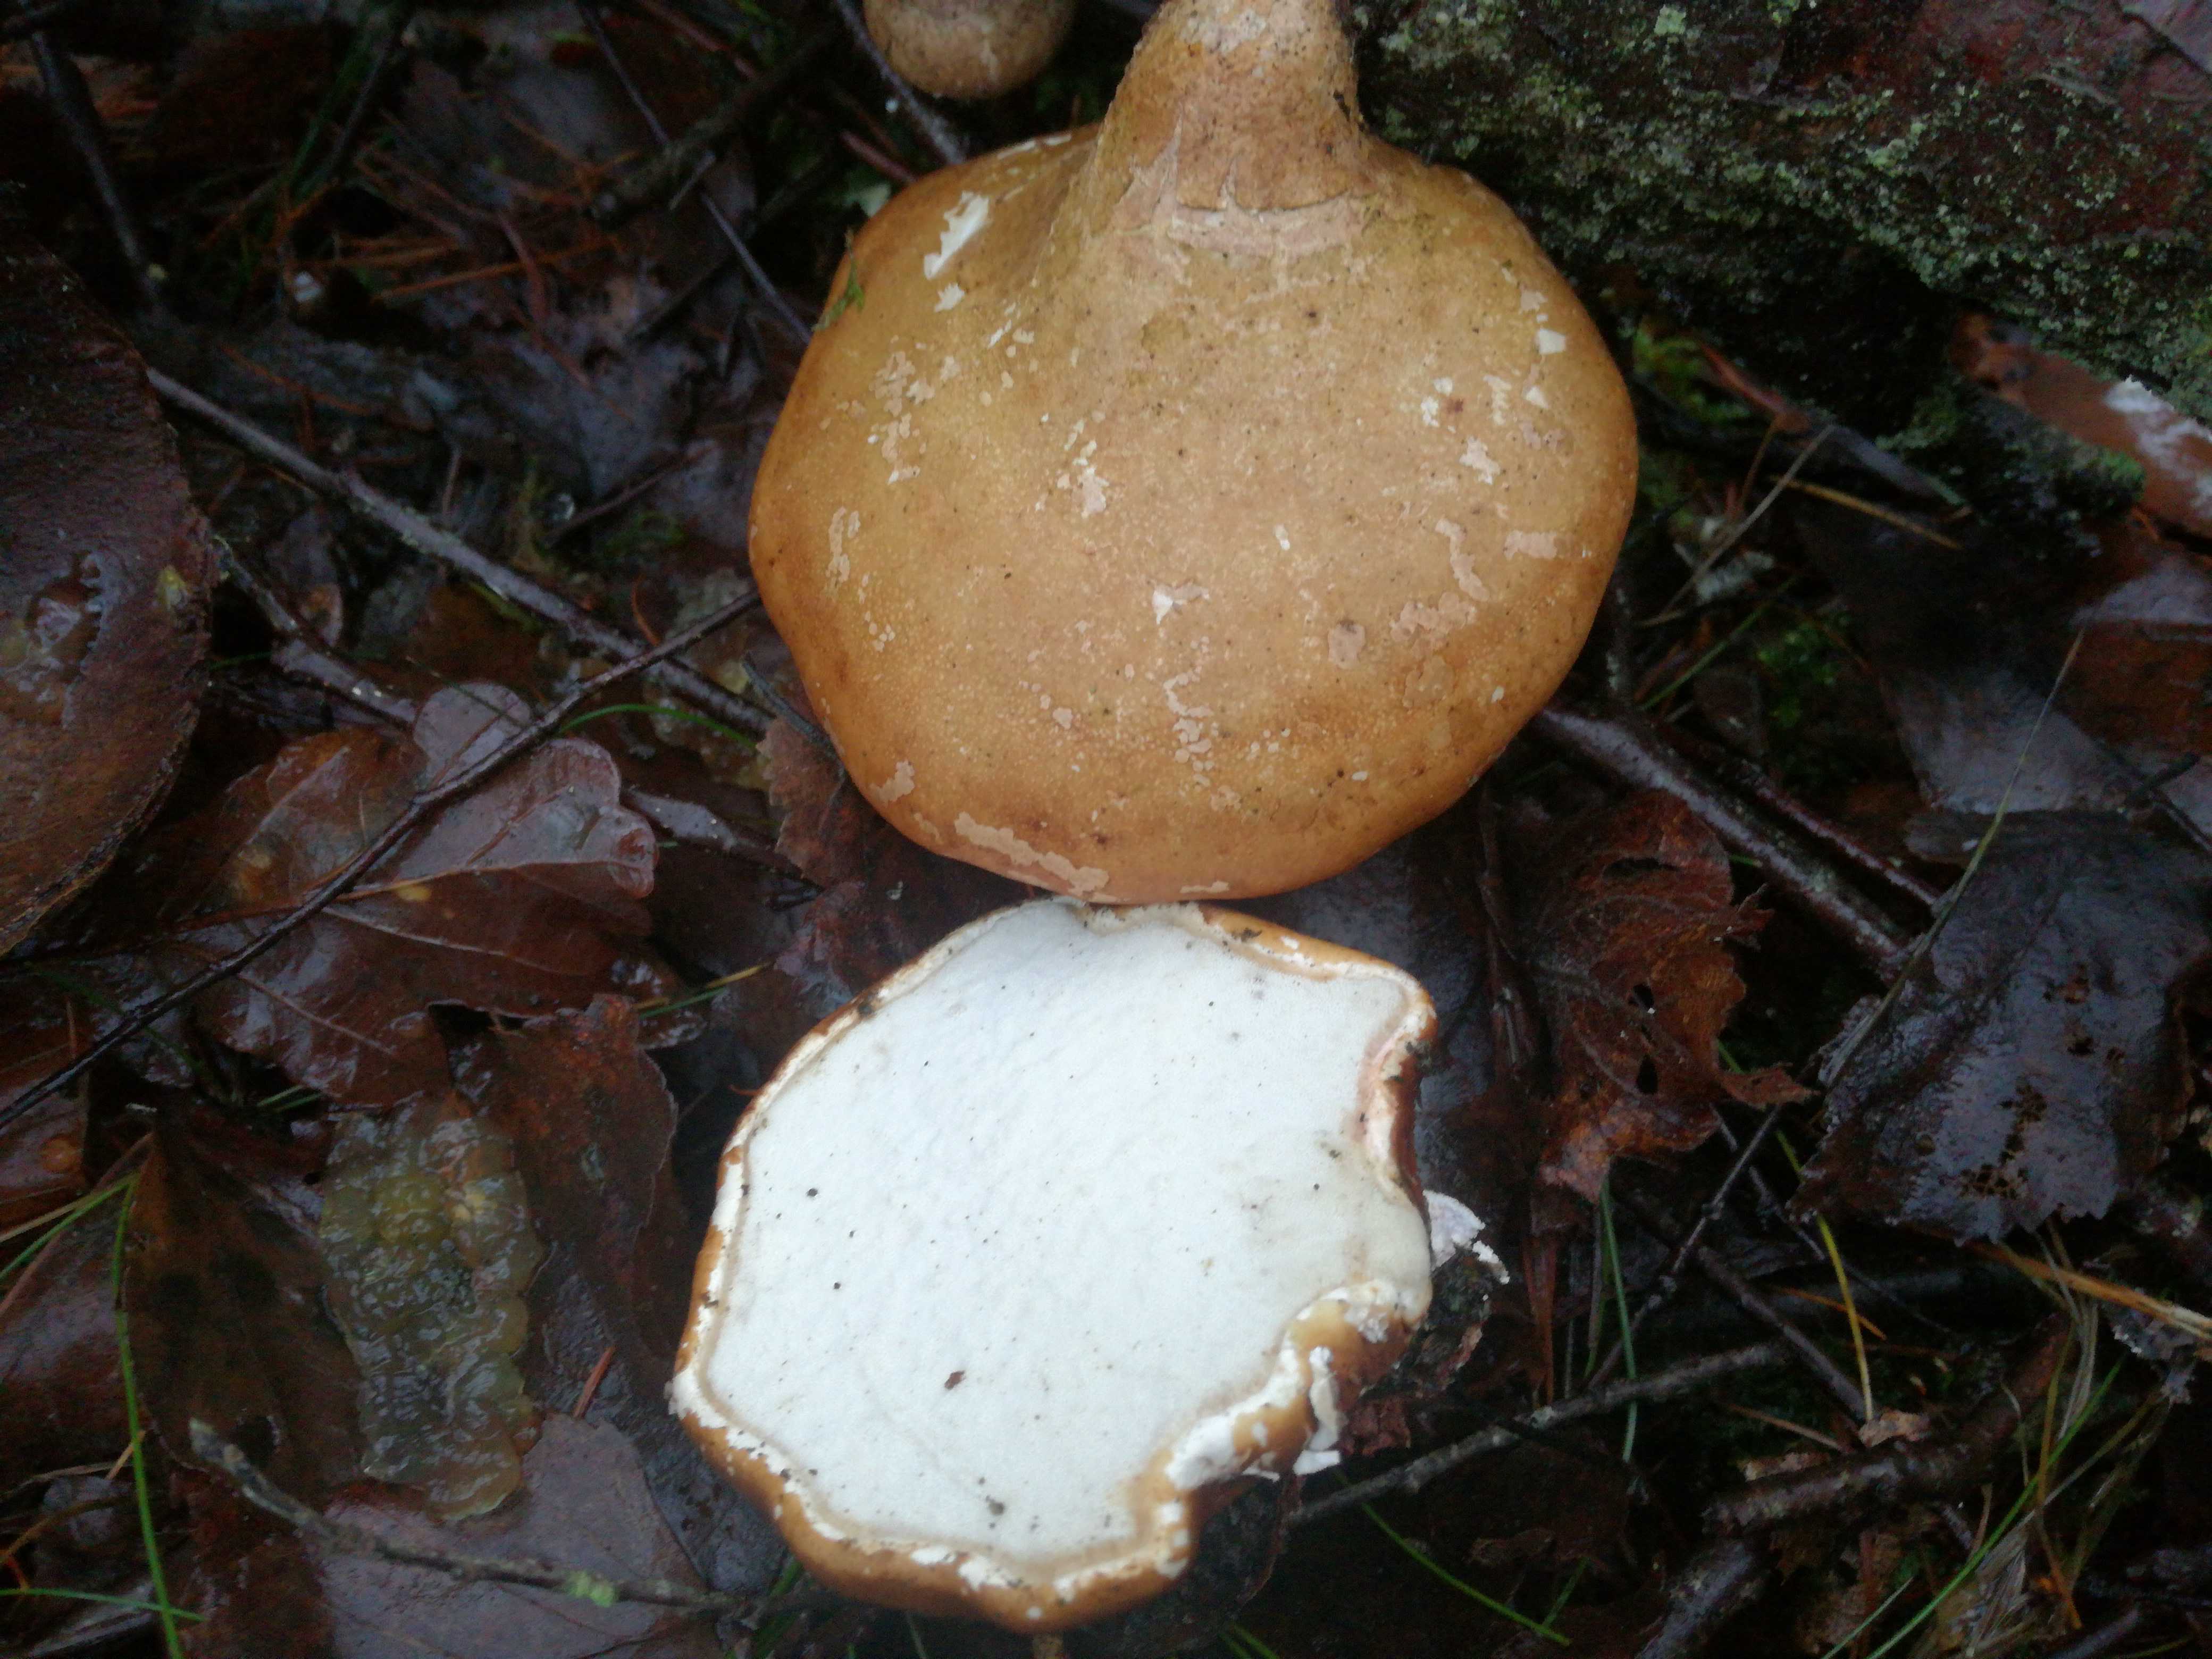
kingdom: Fungi
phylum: Basidiomycota
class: Agaricomycetes
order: Polyporales
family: Fomitopsidaceae
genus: Fomitopsis
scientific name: Fomitopsis betulina
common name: birkeporesvamp
